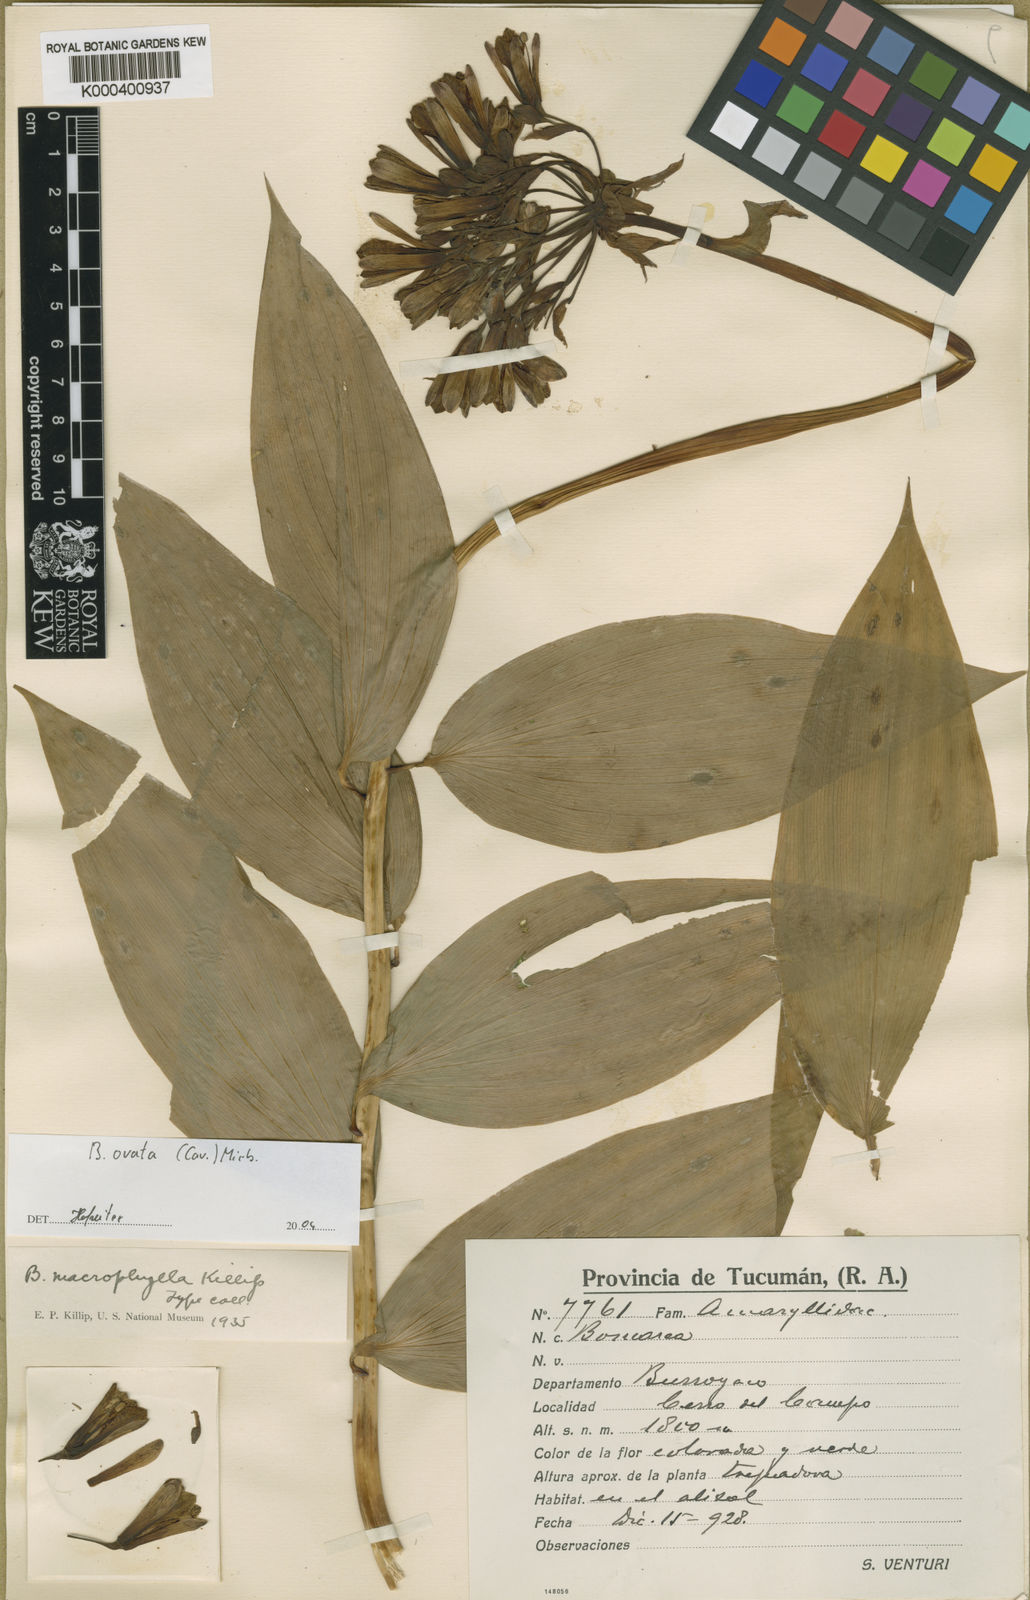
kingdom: Plantae
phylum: Tracheophyta
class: Liliopsida
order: Liliales
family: Alstroemeriaceae
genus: Bomarea
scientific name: Bomarea ovata
